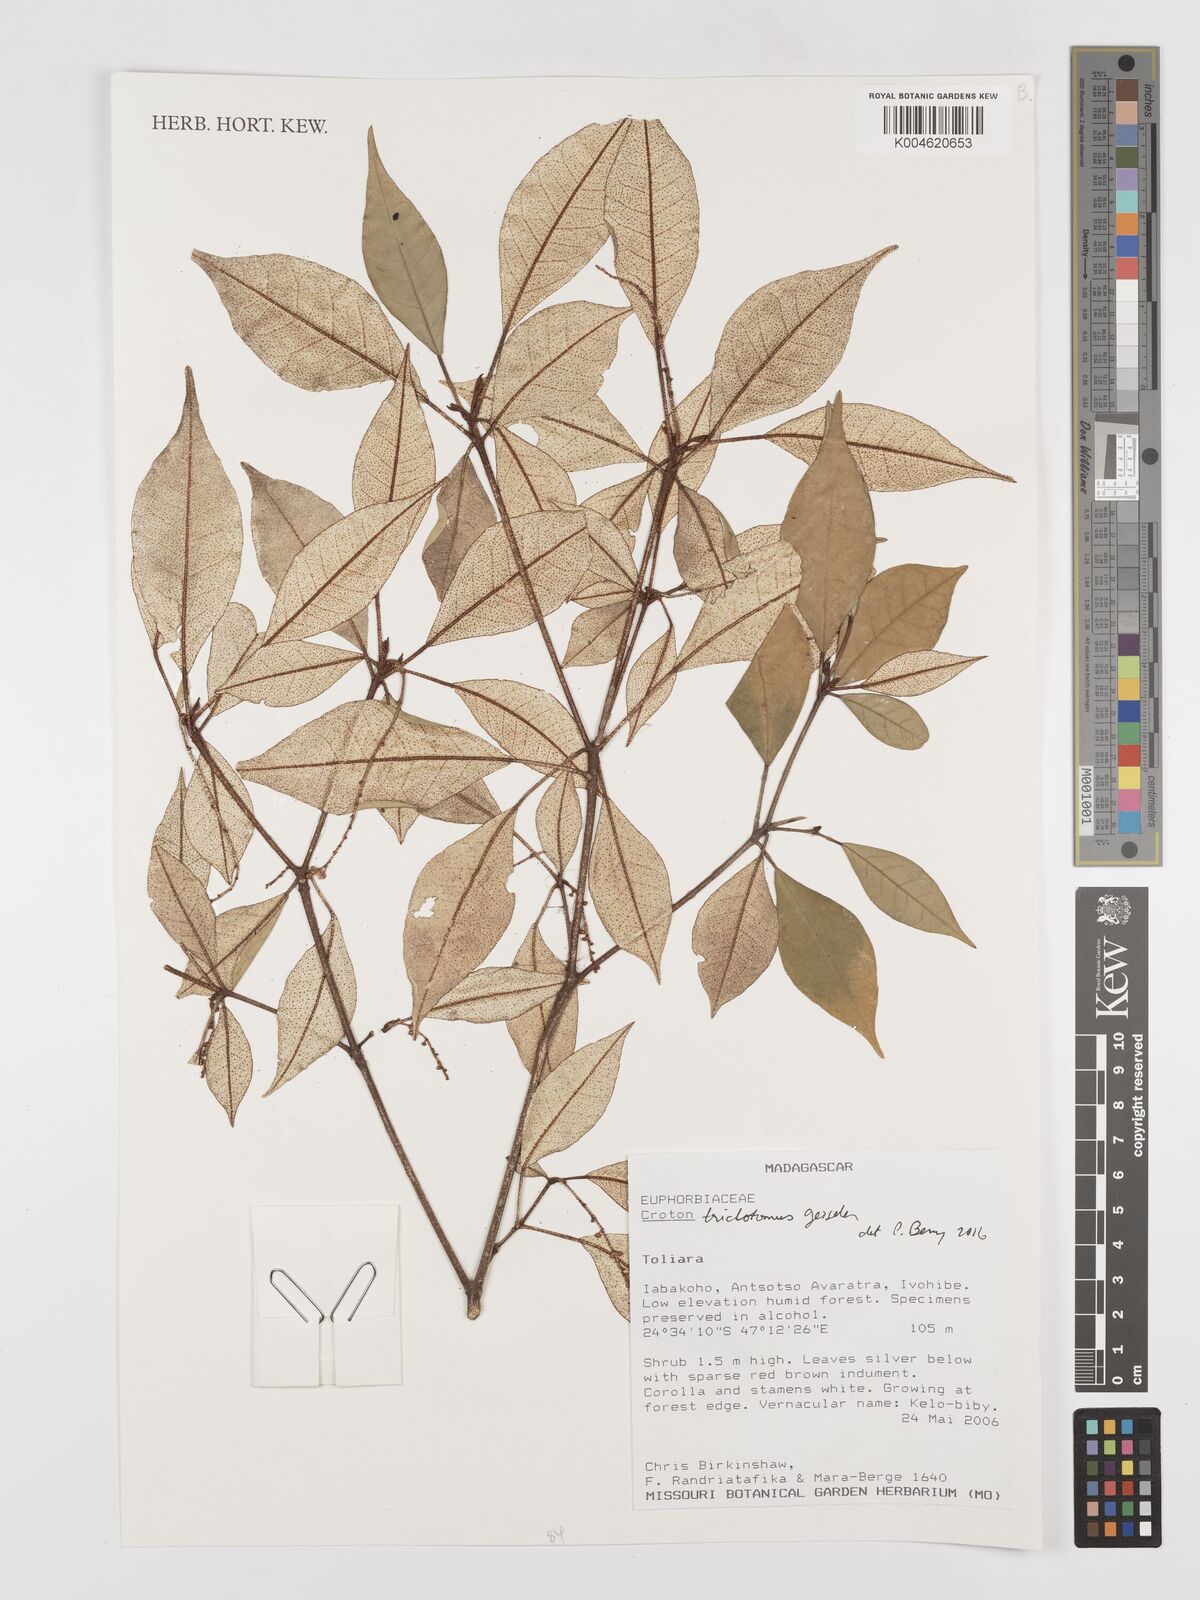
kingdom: Plantae
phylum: Tracheophyta
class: Magnoliopsida
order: Malpighiales
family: Euphorbiaceae
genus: Croton
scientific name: Croton trichotomus
